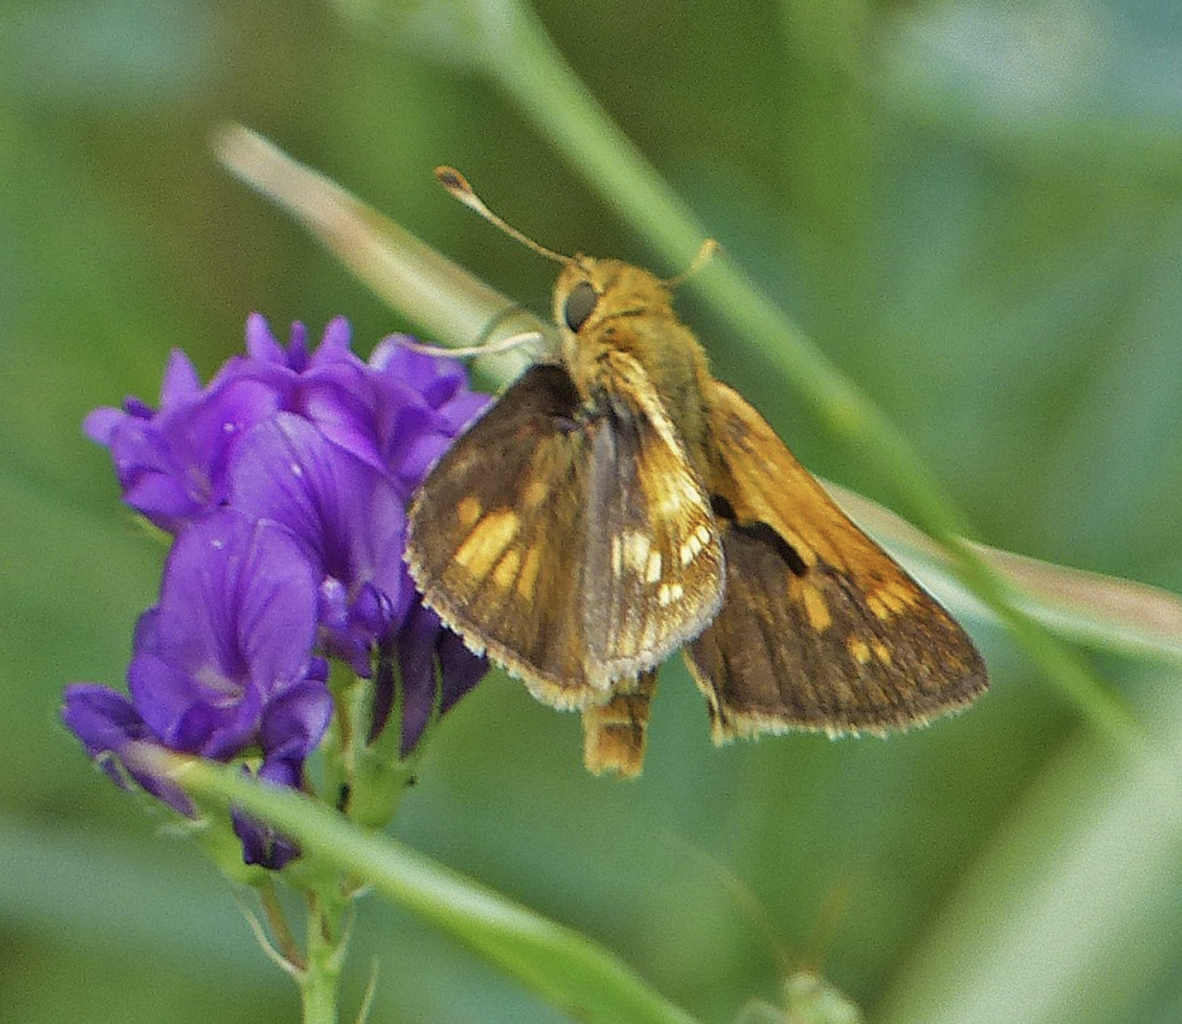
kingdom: Animalia
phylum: Arthropoda
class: Insecta
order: Lepidoptera
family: Hesperiidae
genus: Polites
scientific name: Polites coras
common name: Peck's Skipper
